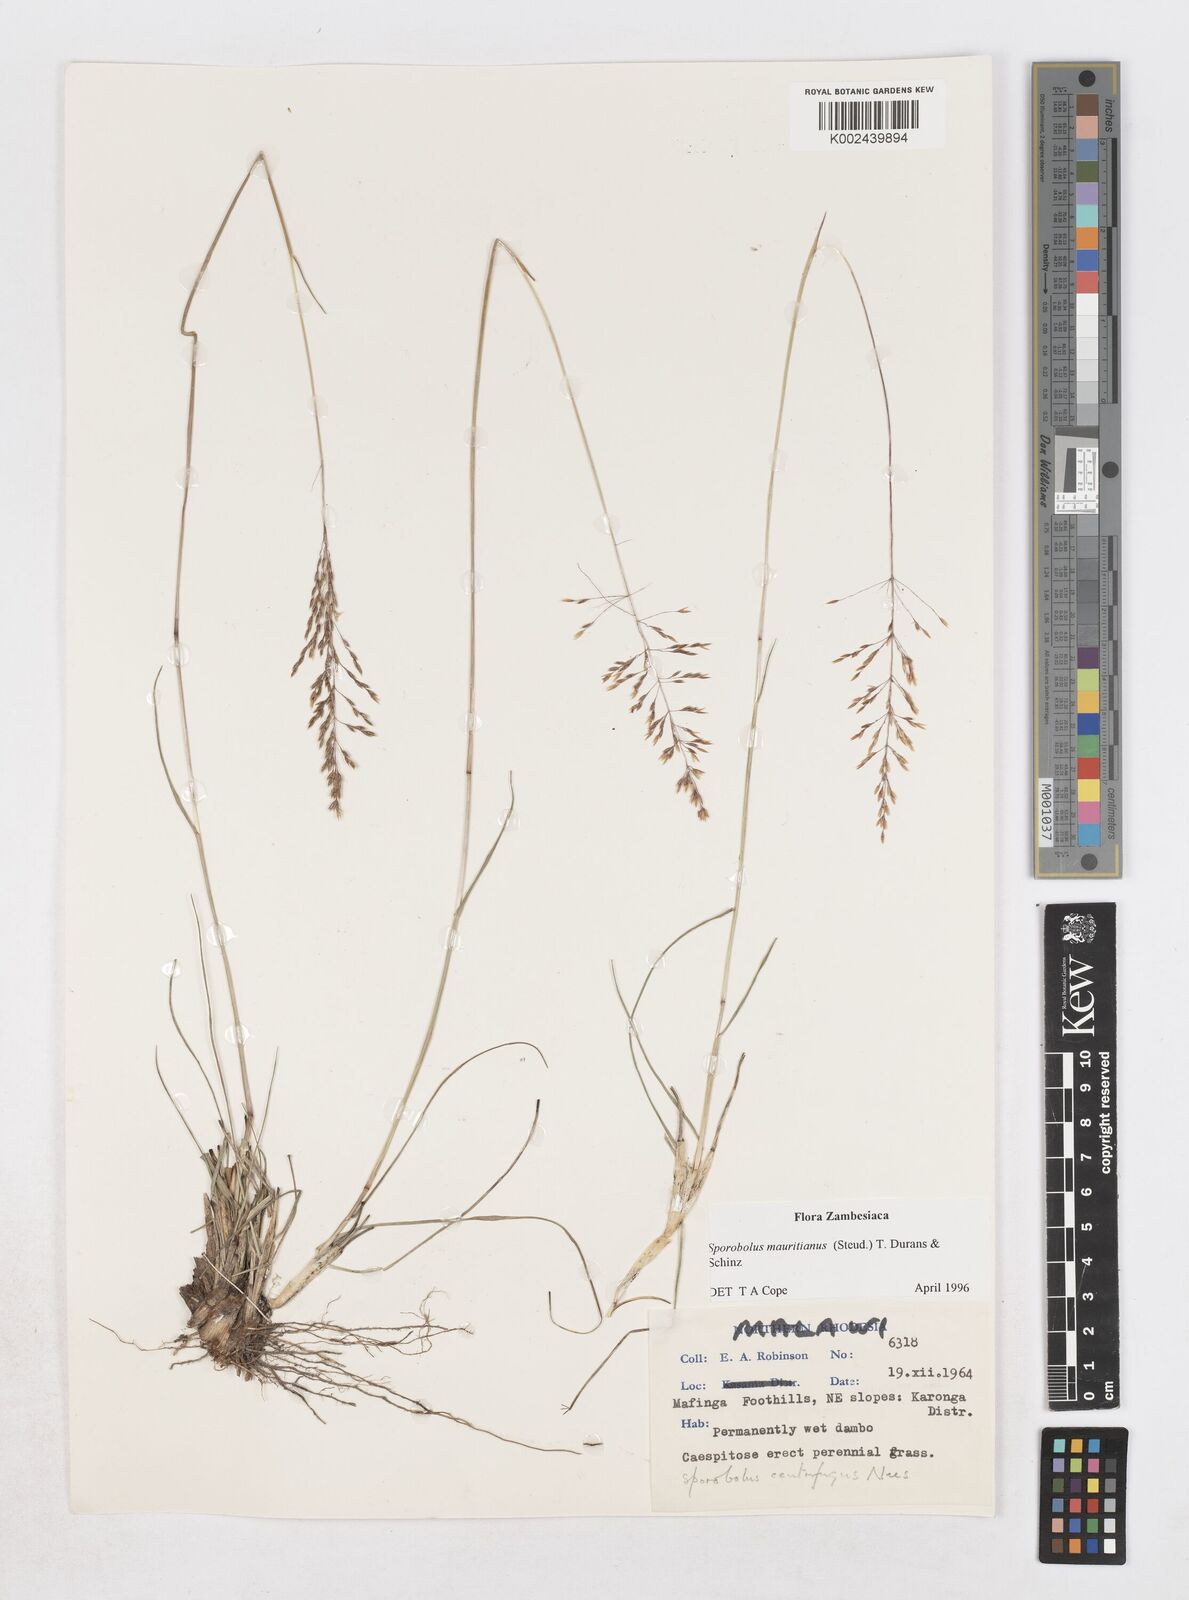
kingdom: Plantae
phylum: Tracheophyta
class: Liliopsida
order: Poales
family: Poaceae
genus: Sporobolus
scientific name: Sporobolus subulatus
